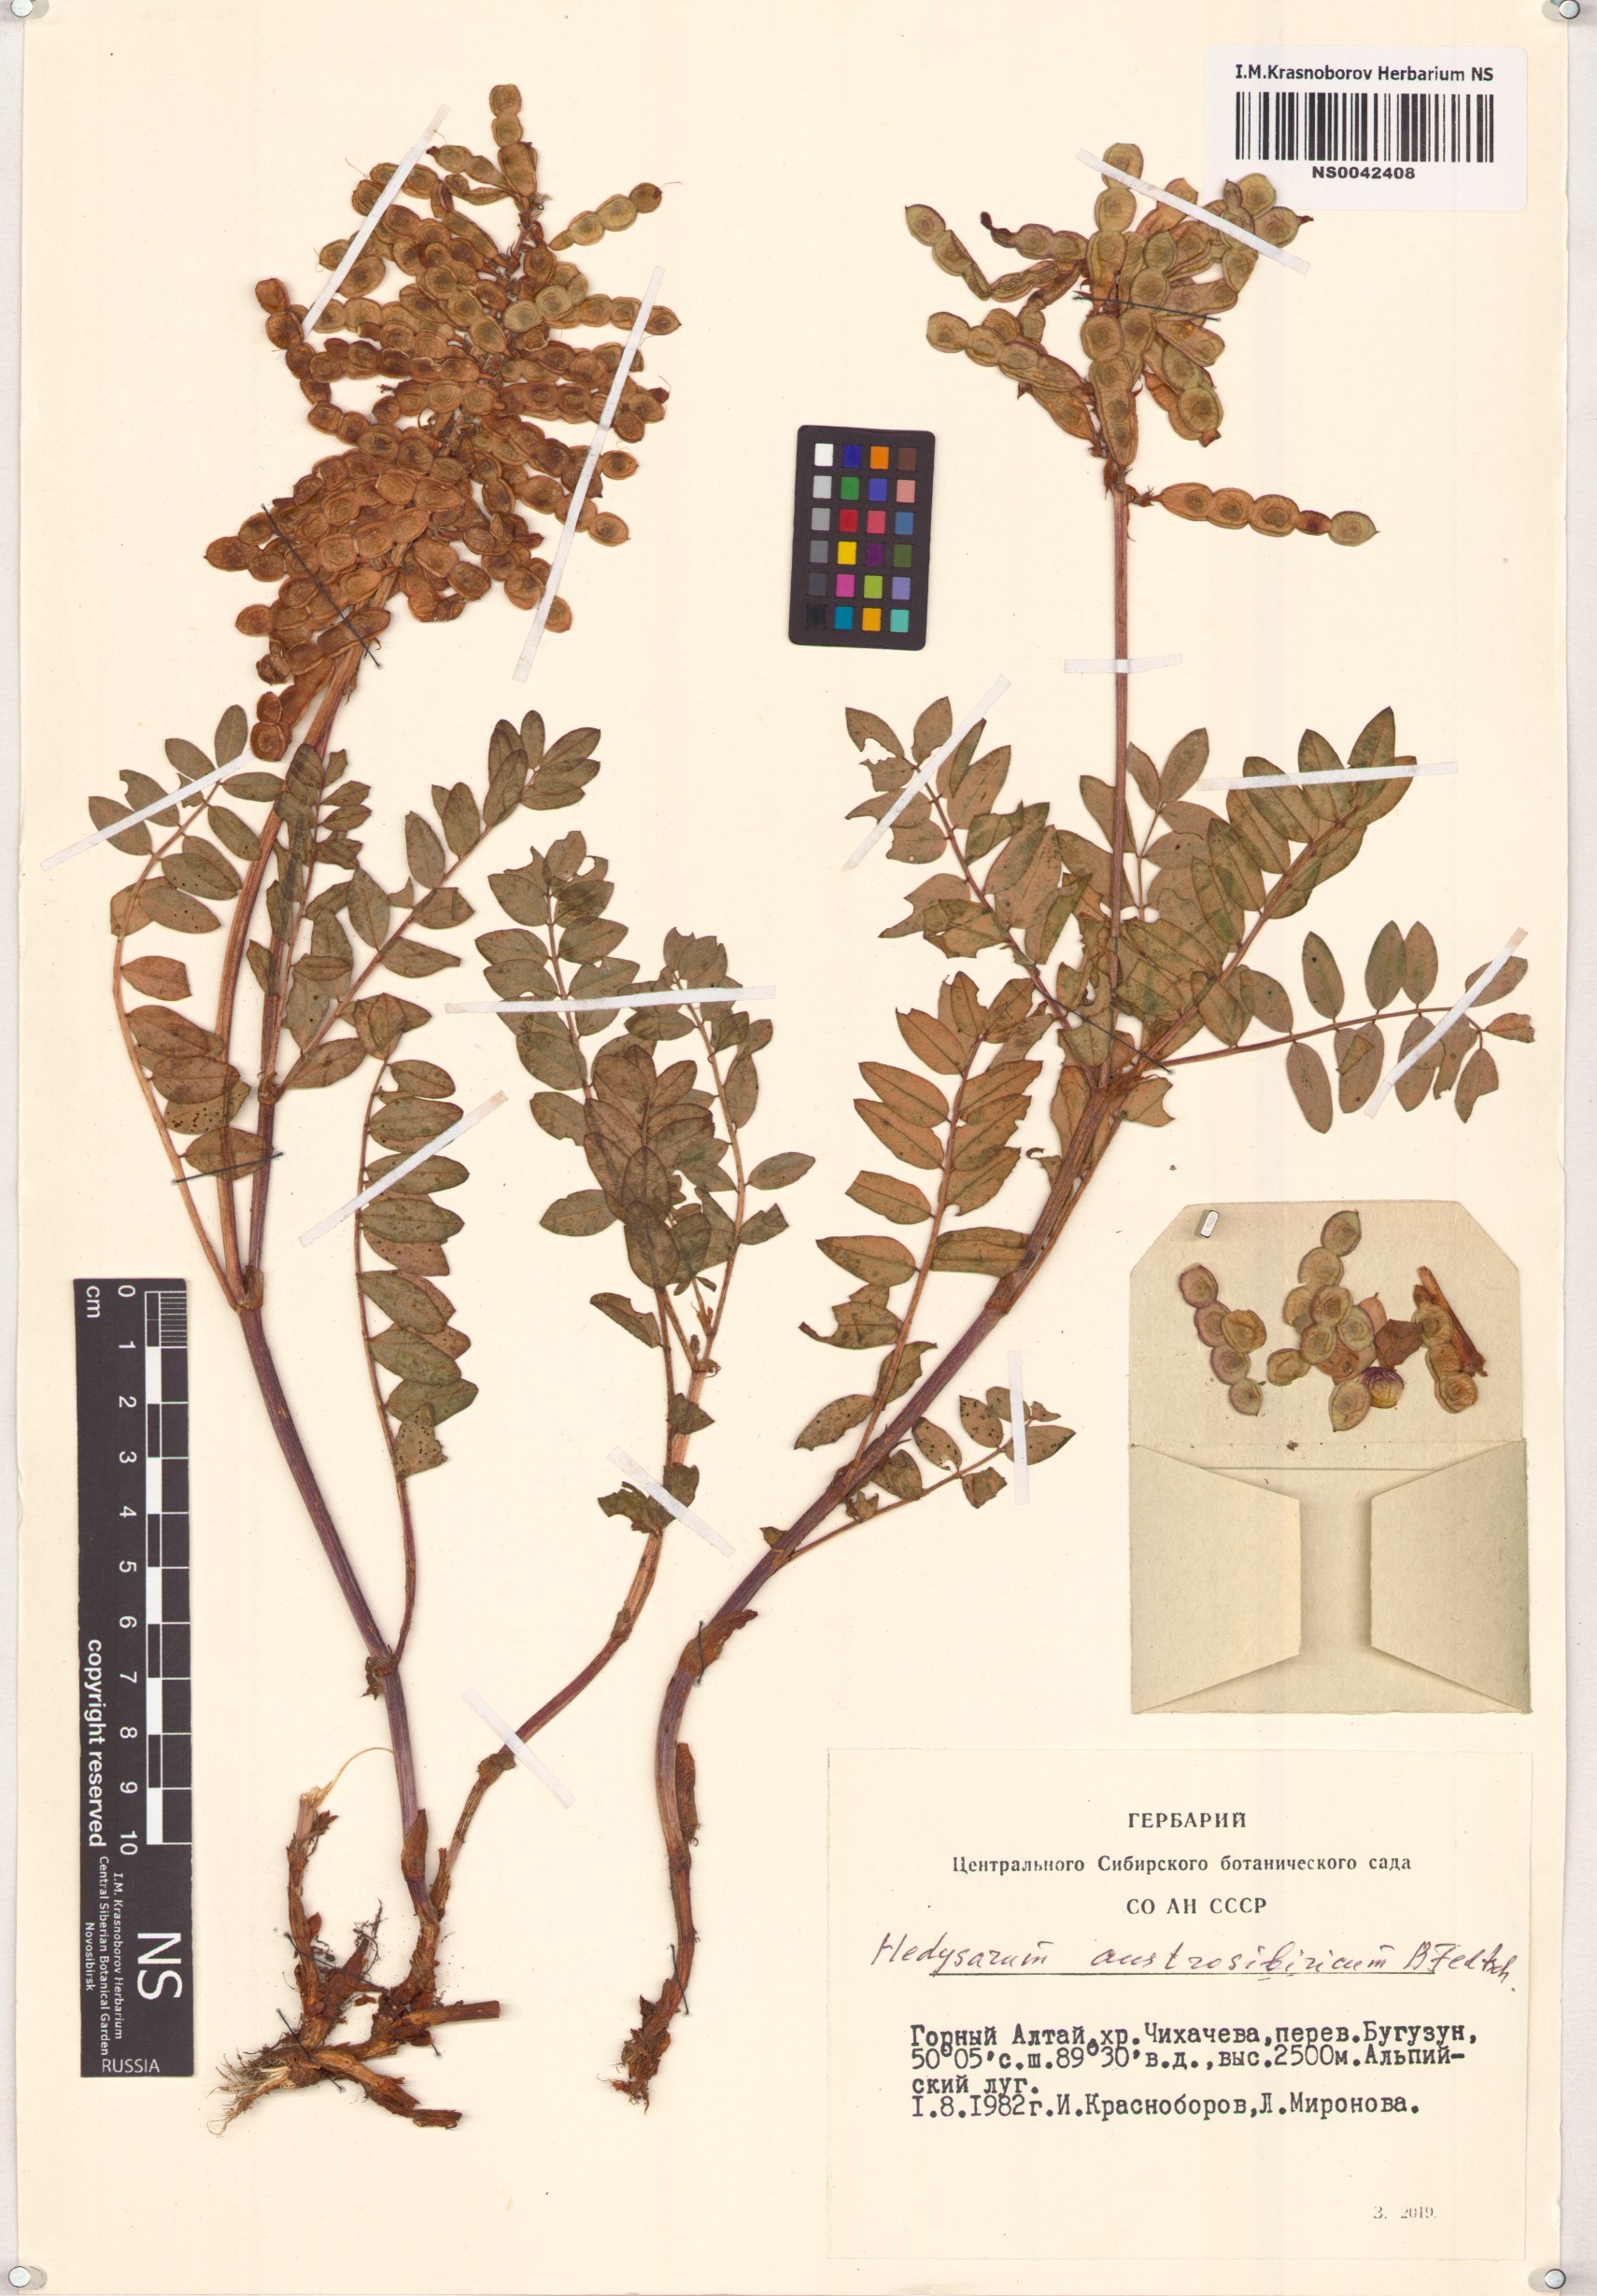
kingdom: Plantae
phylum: Tracheophyta
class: Magnoliopsida
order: Fabales
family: Fabaceae
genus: Hedysarum
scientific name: Hedysarum neglectum
